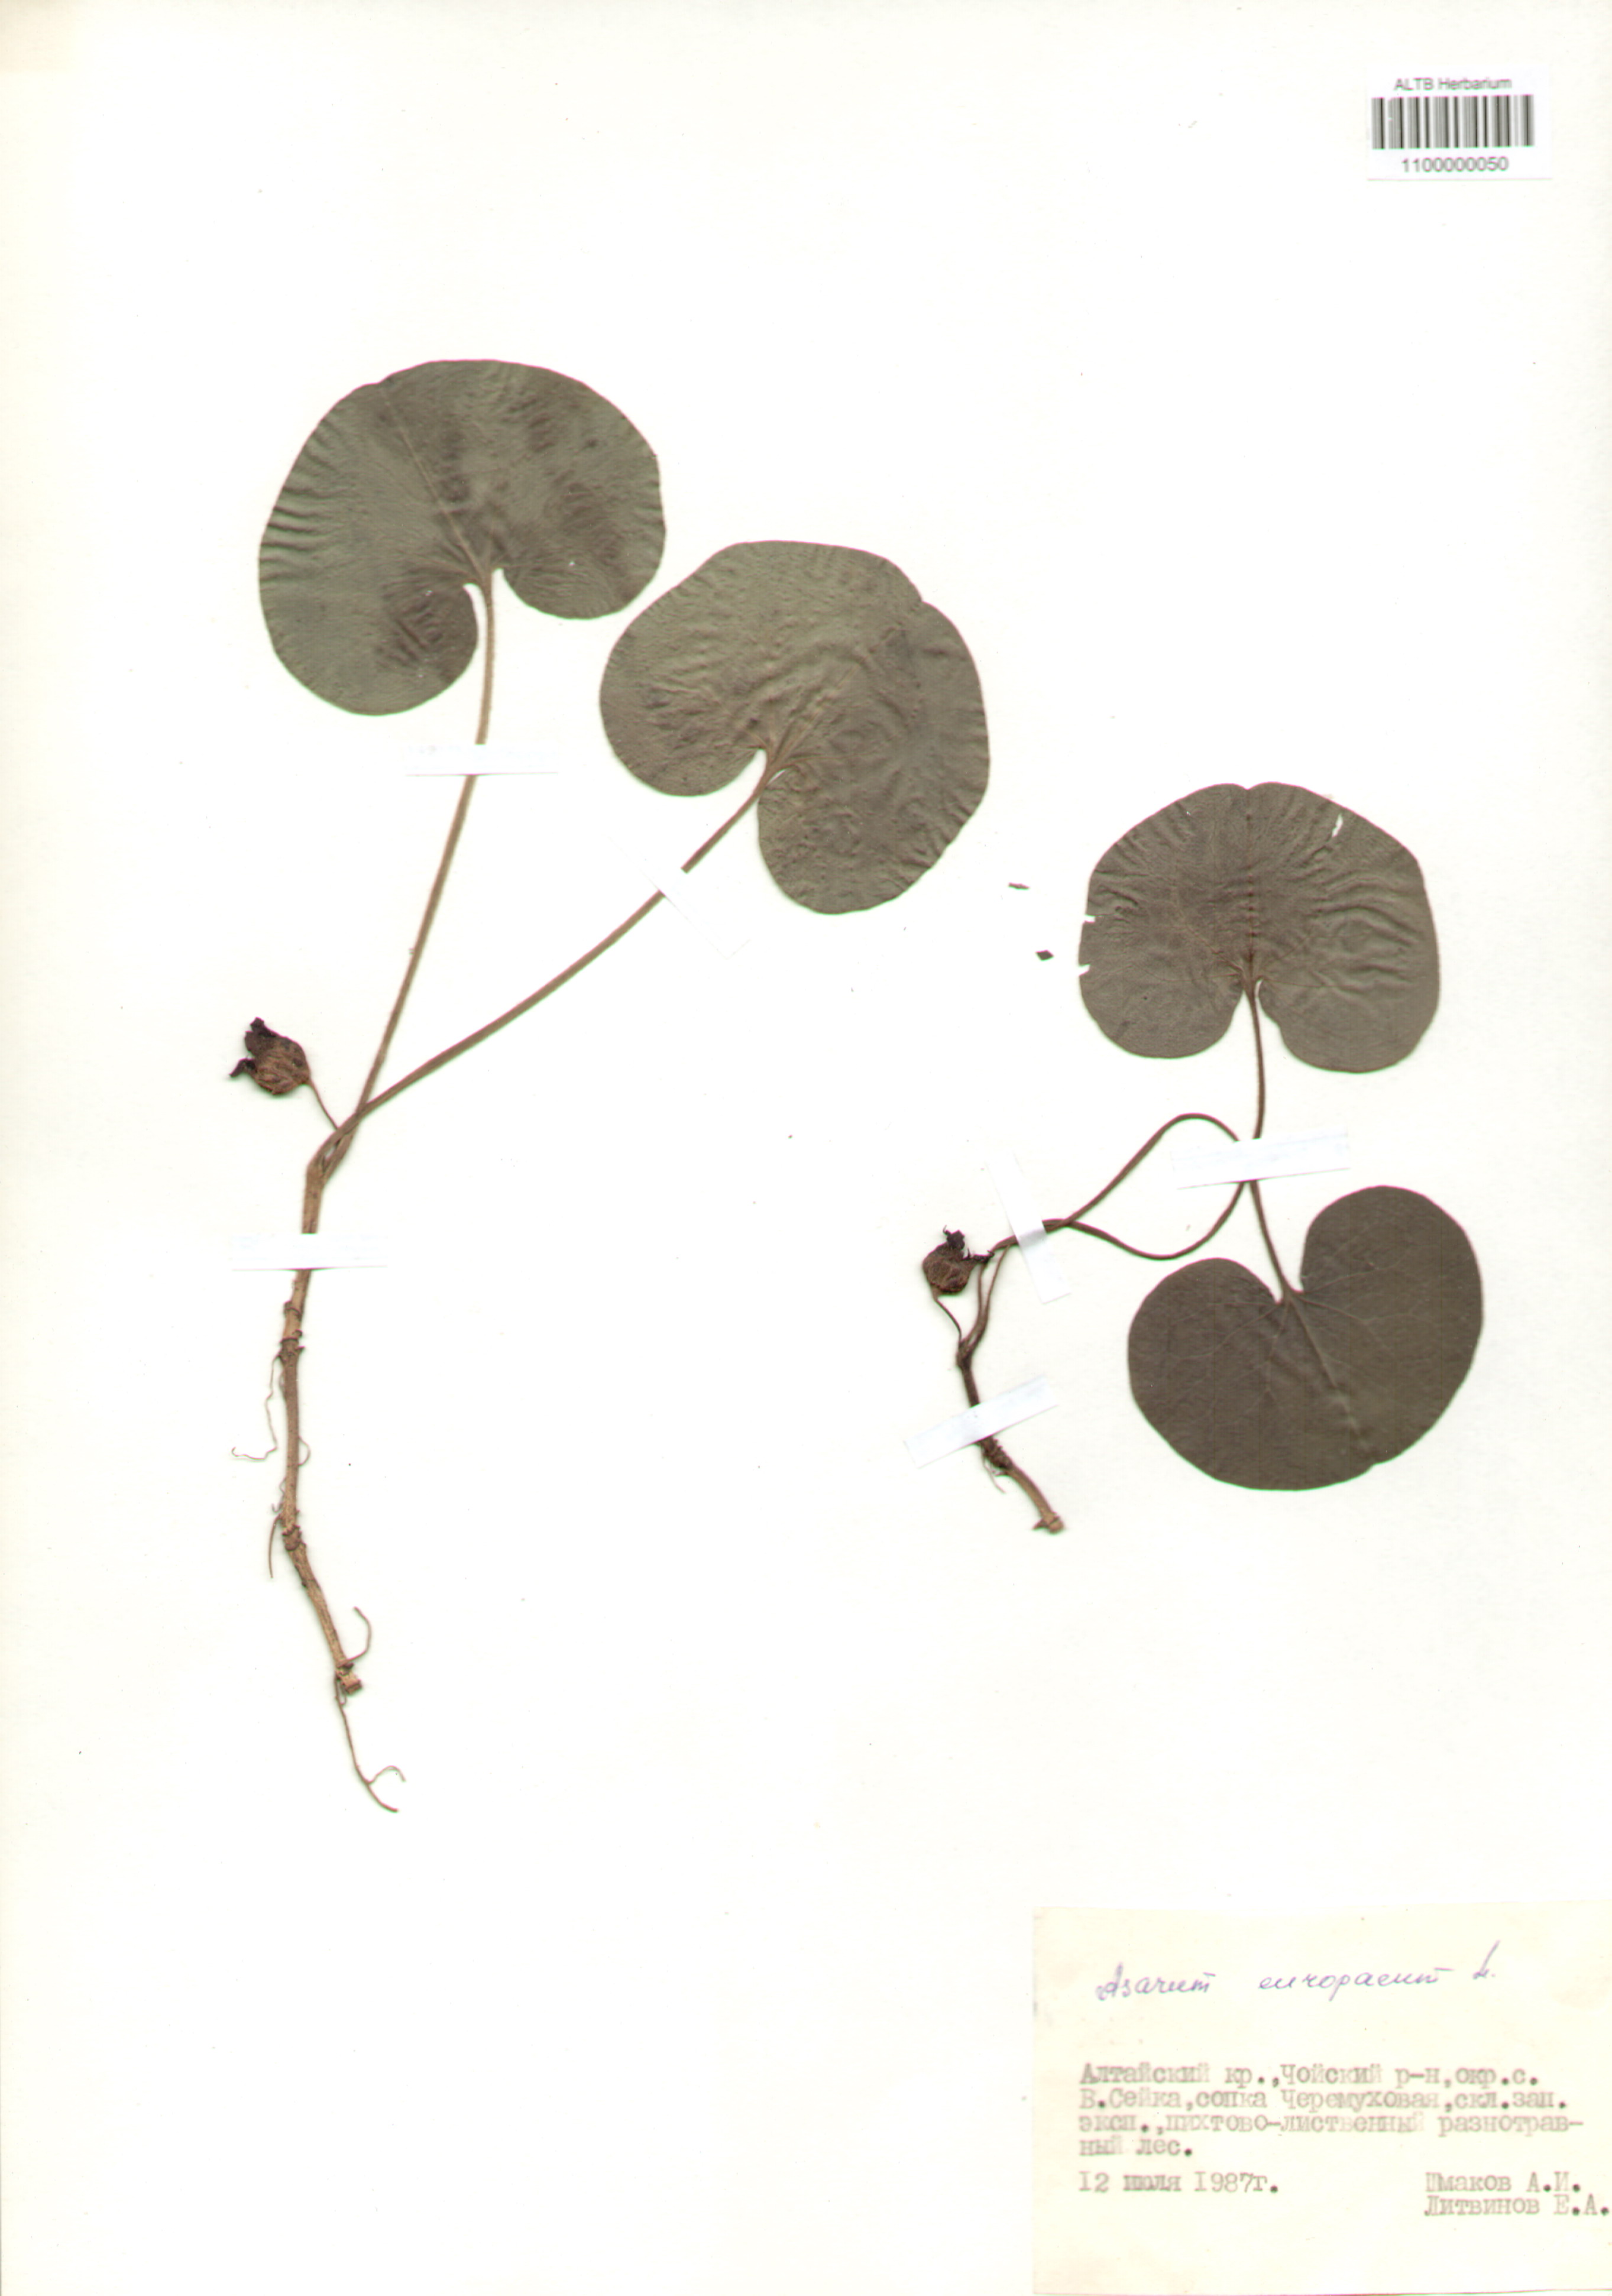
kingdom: Plantae
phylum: Tracheophyta
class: Magnoliopsida
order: Piperales
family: Aristolochiaceae
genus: Asarum
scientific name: Asarum europaeum
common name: Asarabacca
